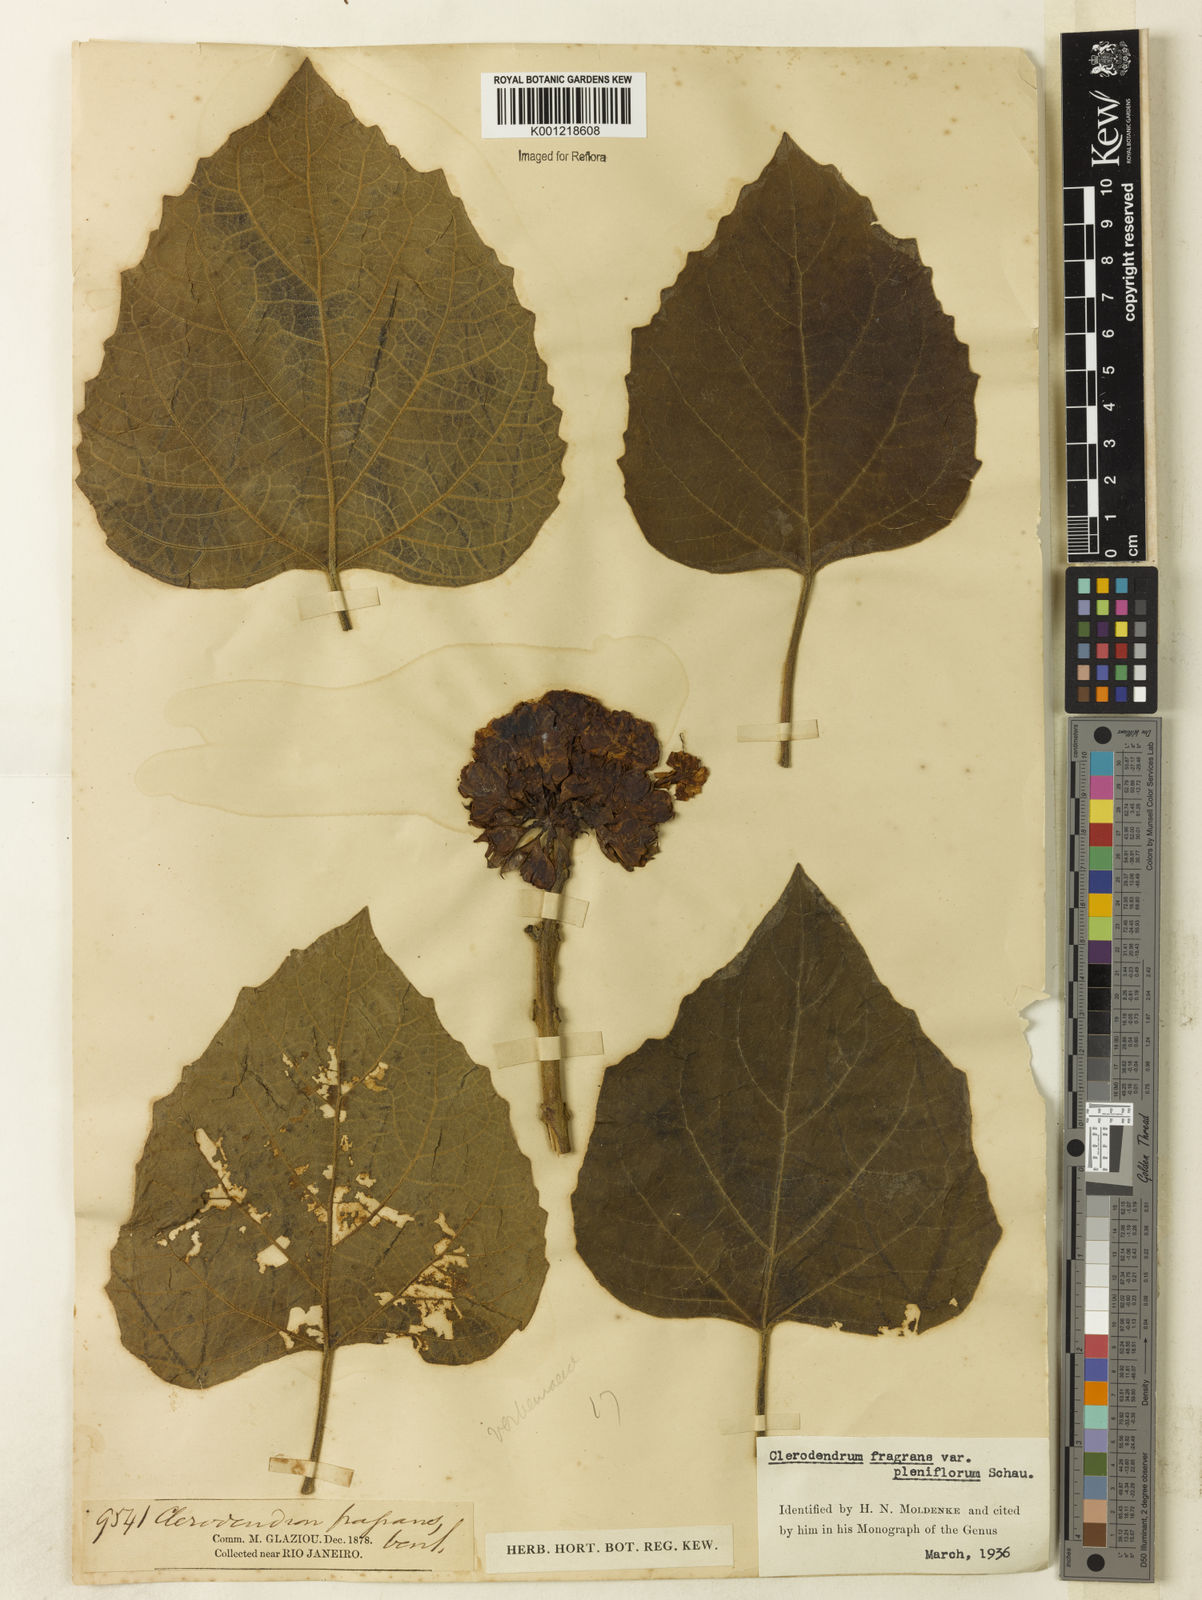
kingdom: Plantae
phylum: Tracheophyta
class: Magnoliopsida
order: Lamiales
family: Lamiaceae
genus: Clerodendrum
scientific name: Clerodendrum chinense
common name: Stickbush
